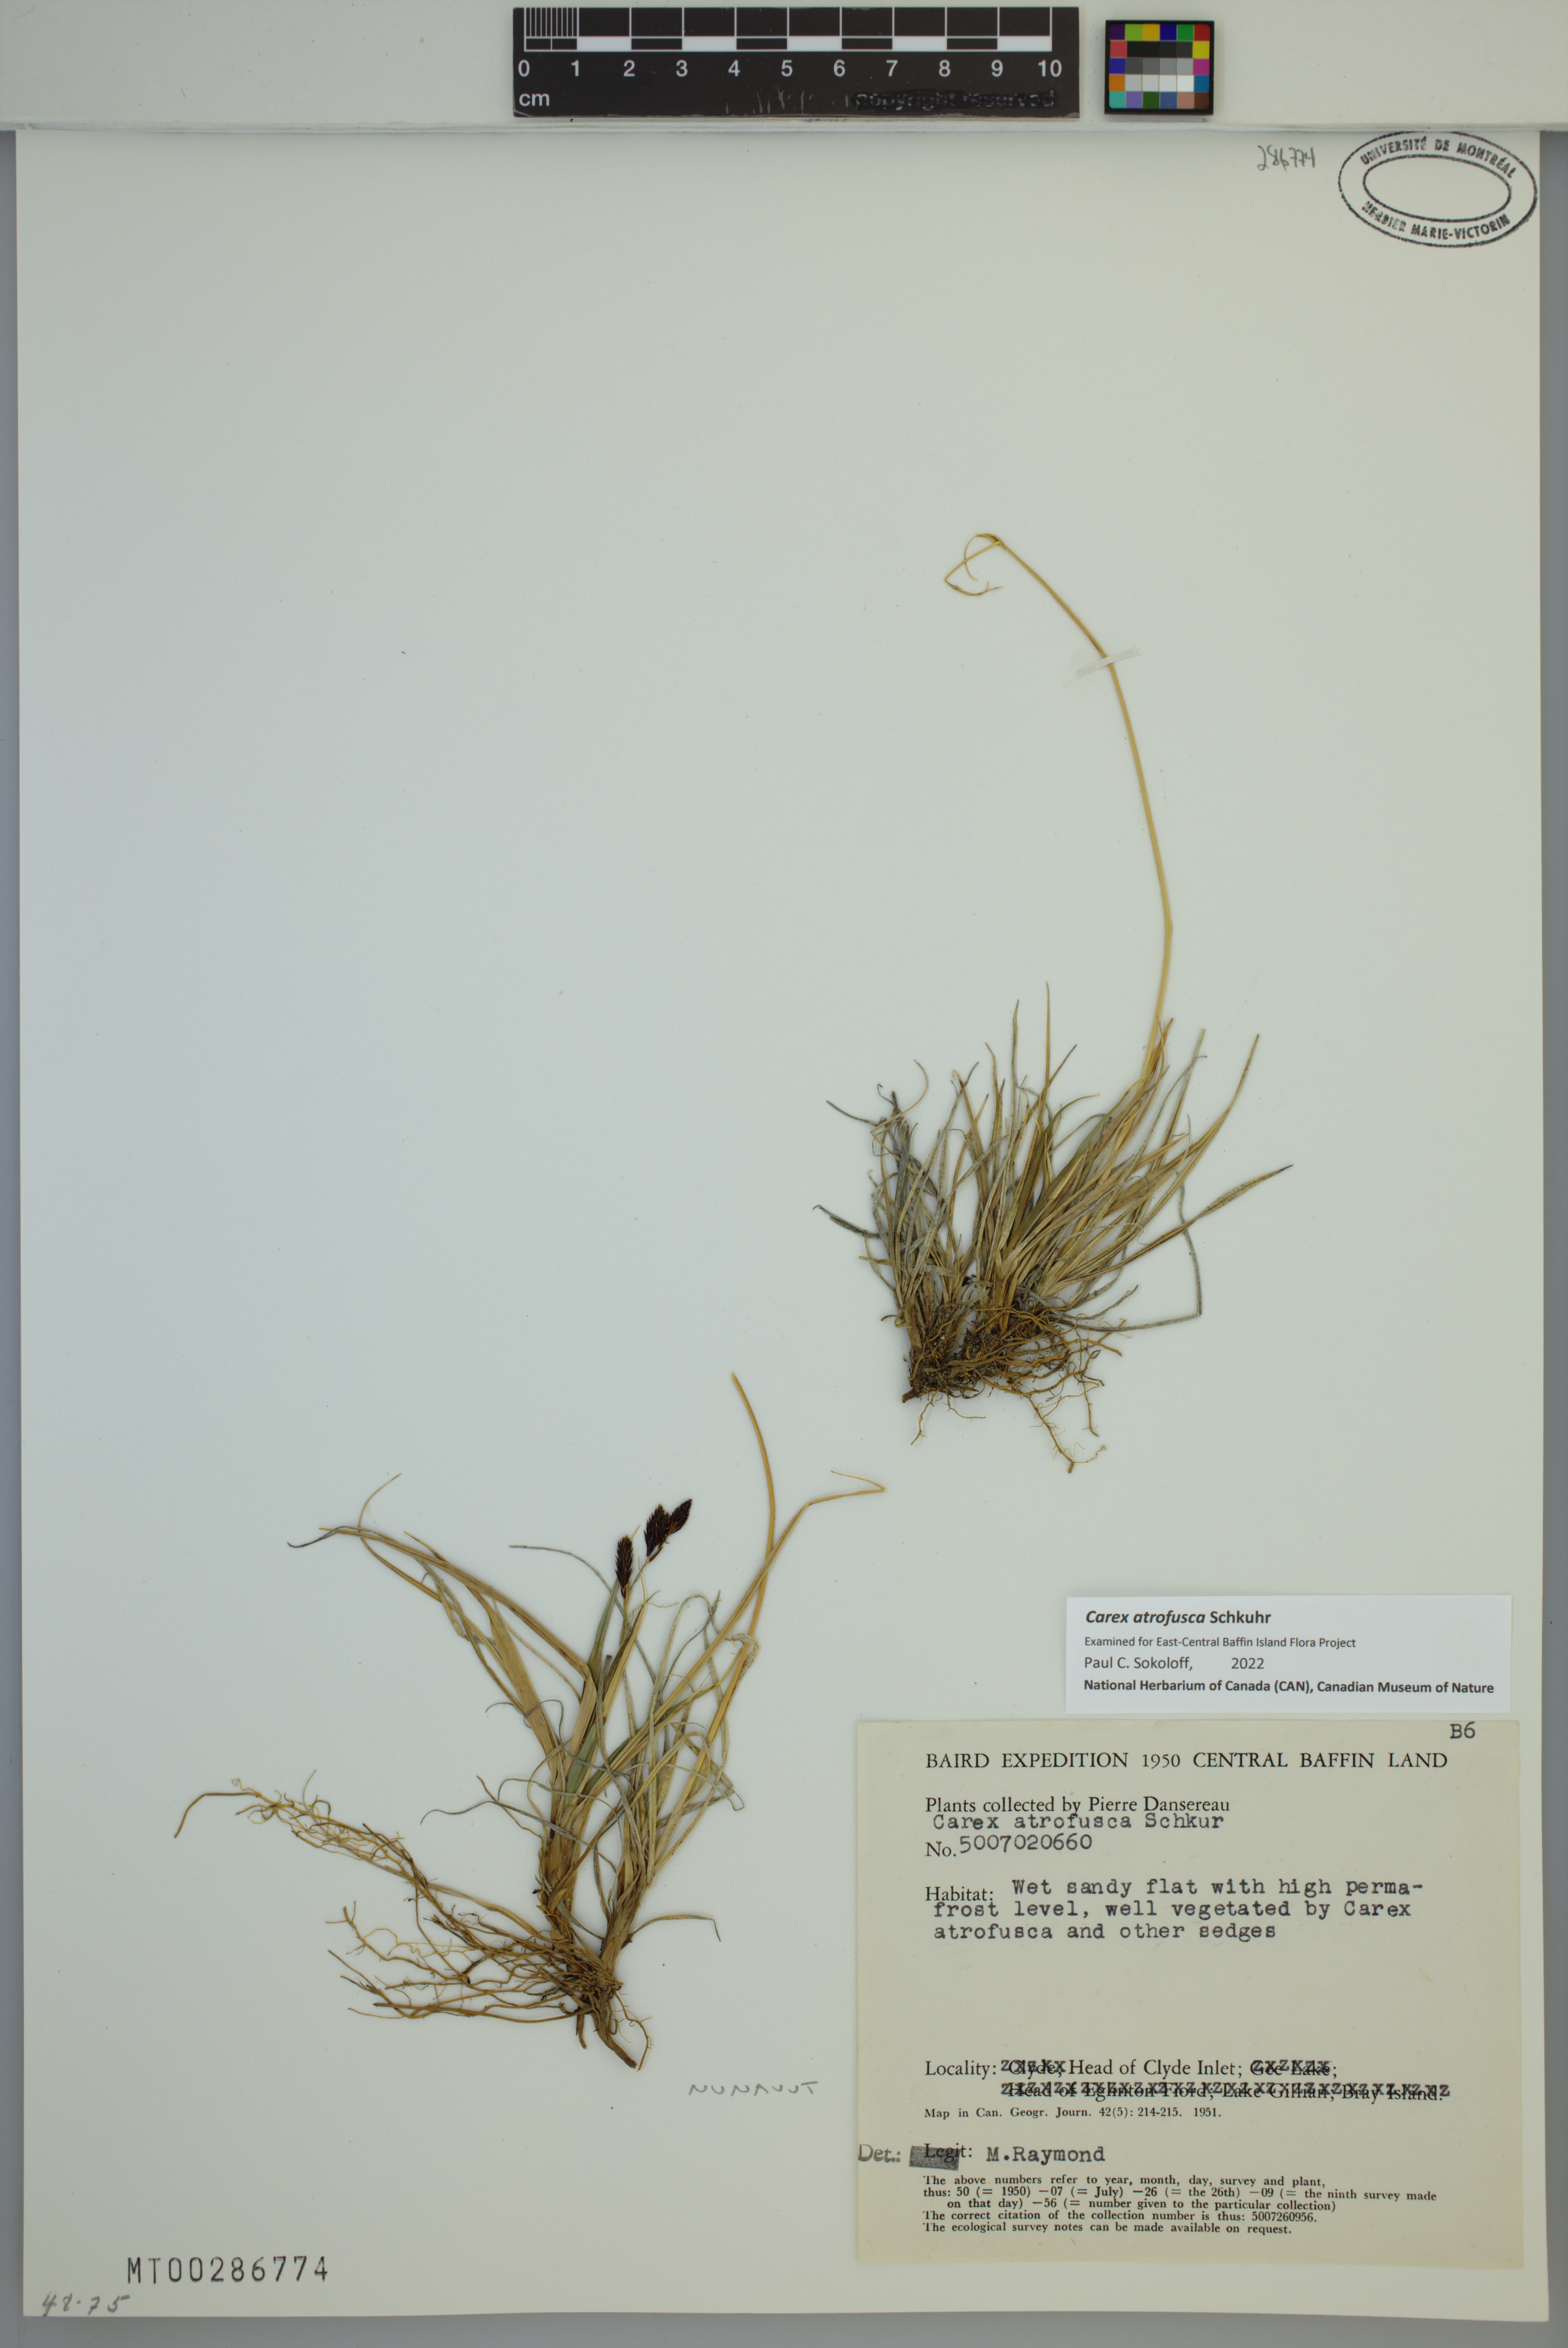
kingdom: Plantae
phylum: Tracheophyta
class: Liliopsida
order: Poales
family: Cyperaceae
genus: Carex
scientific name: Carex atrofusca
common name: Scorched alpine-sedge
